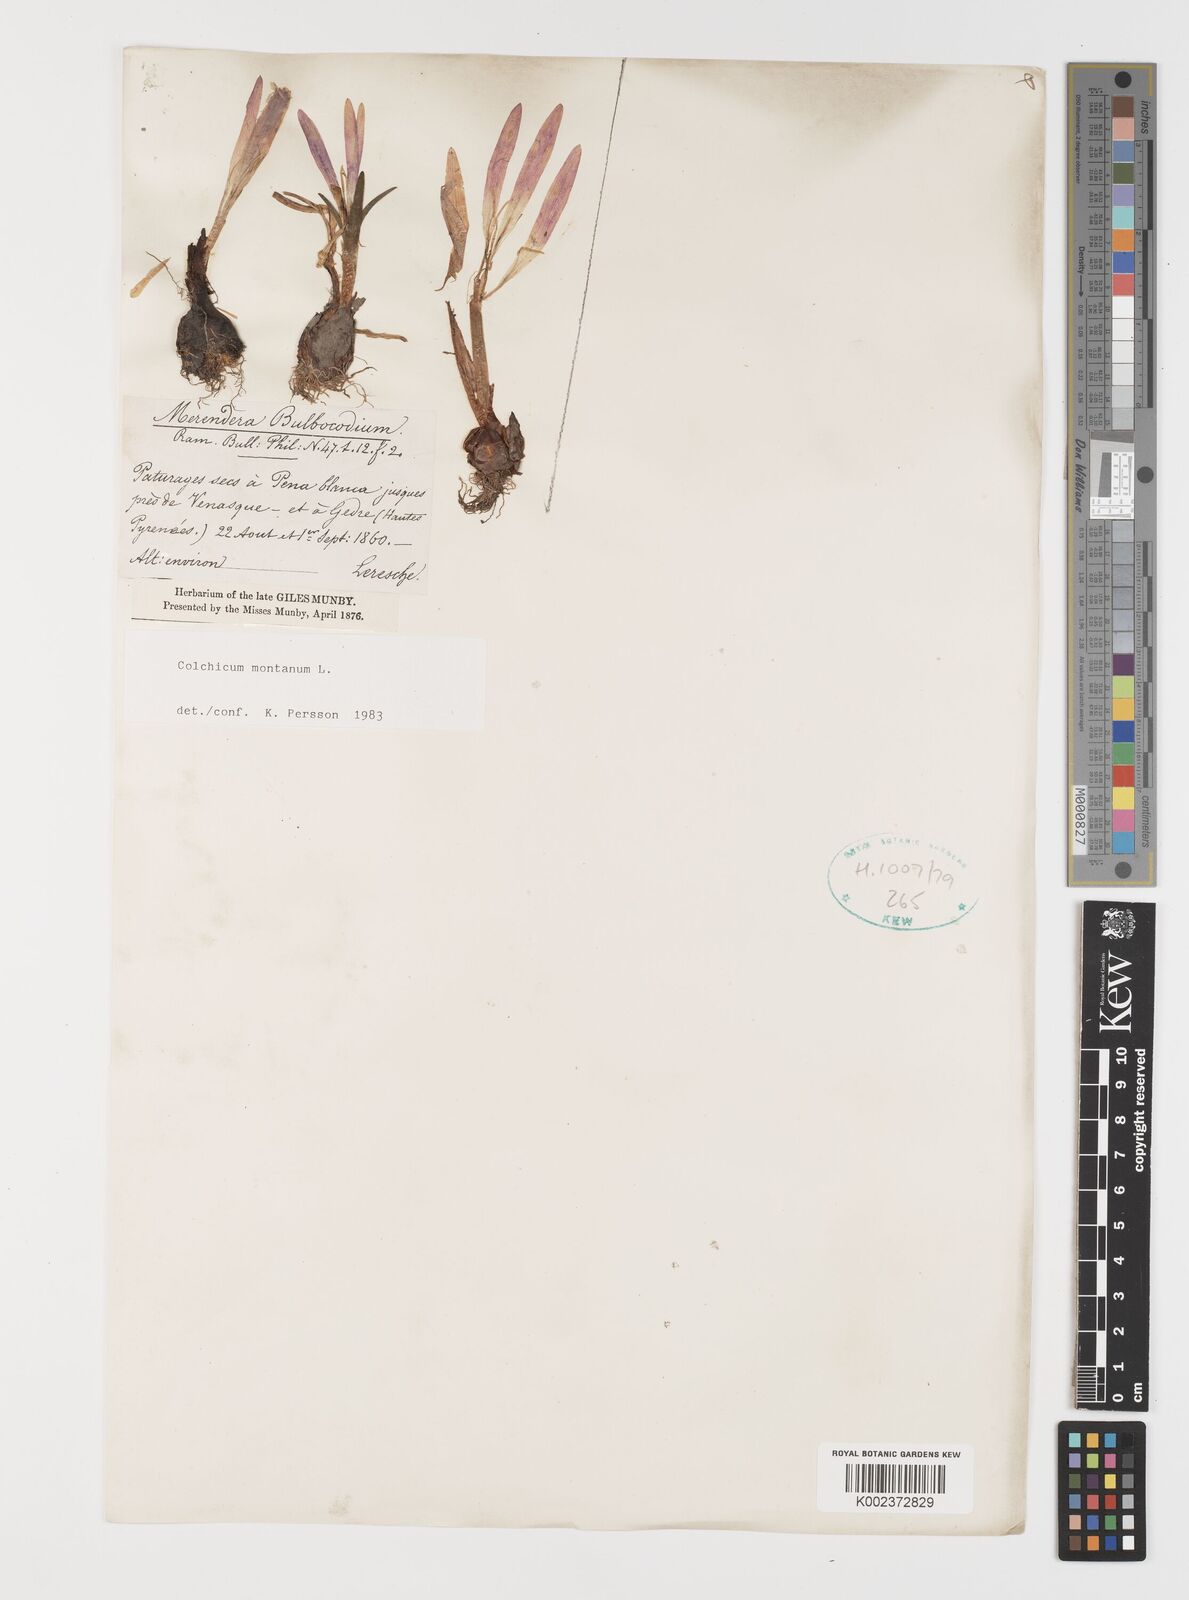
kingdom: Plantae
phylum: Tracheophyta
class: Liliopsida
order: Liliales
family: Colchicaceae
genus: Colchicum
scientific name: Colchicum montanum
